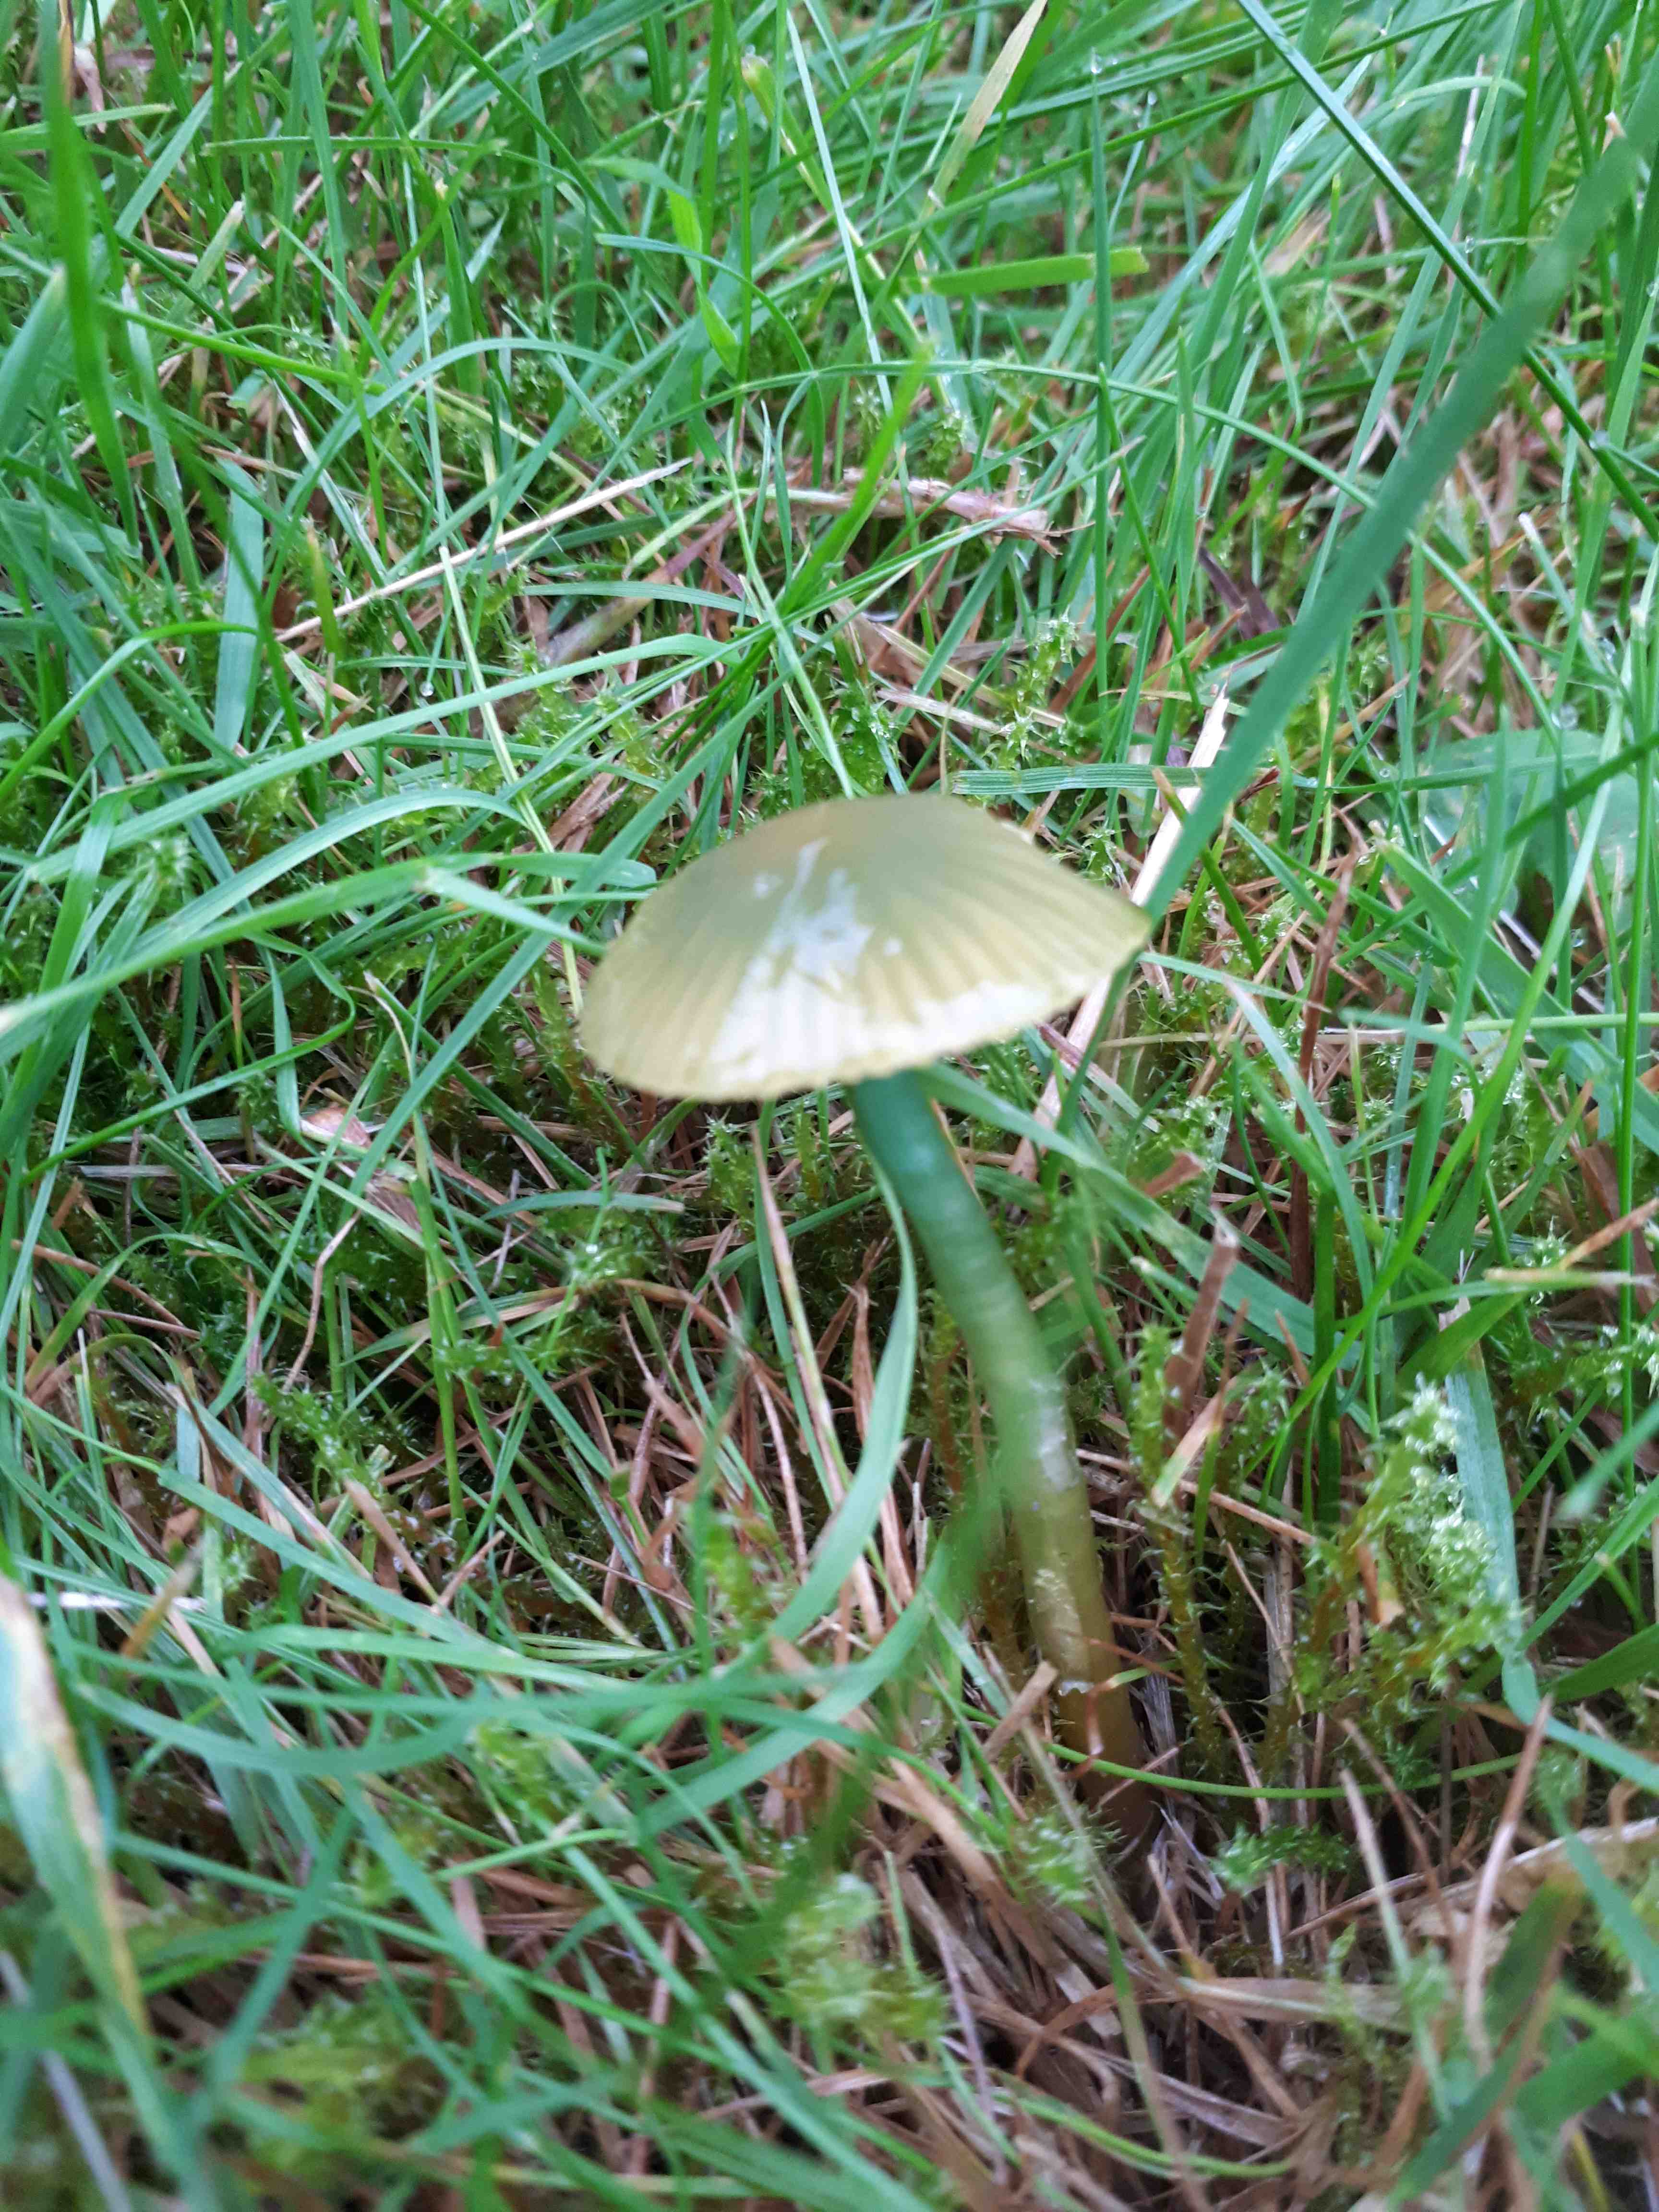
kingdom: Fungi
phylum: Basidiomycota
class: Agaricomycetes
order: Agaricales
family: Hygrophoraceae
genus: Gliophorus
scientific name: Gliophorus psittacinus
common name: papegøje-vokshat
